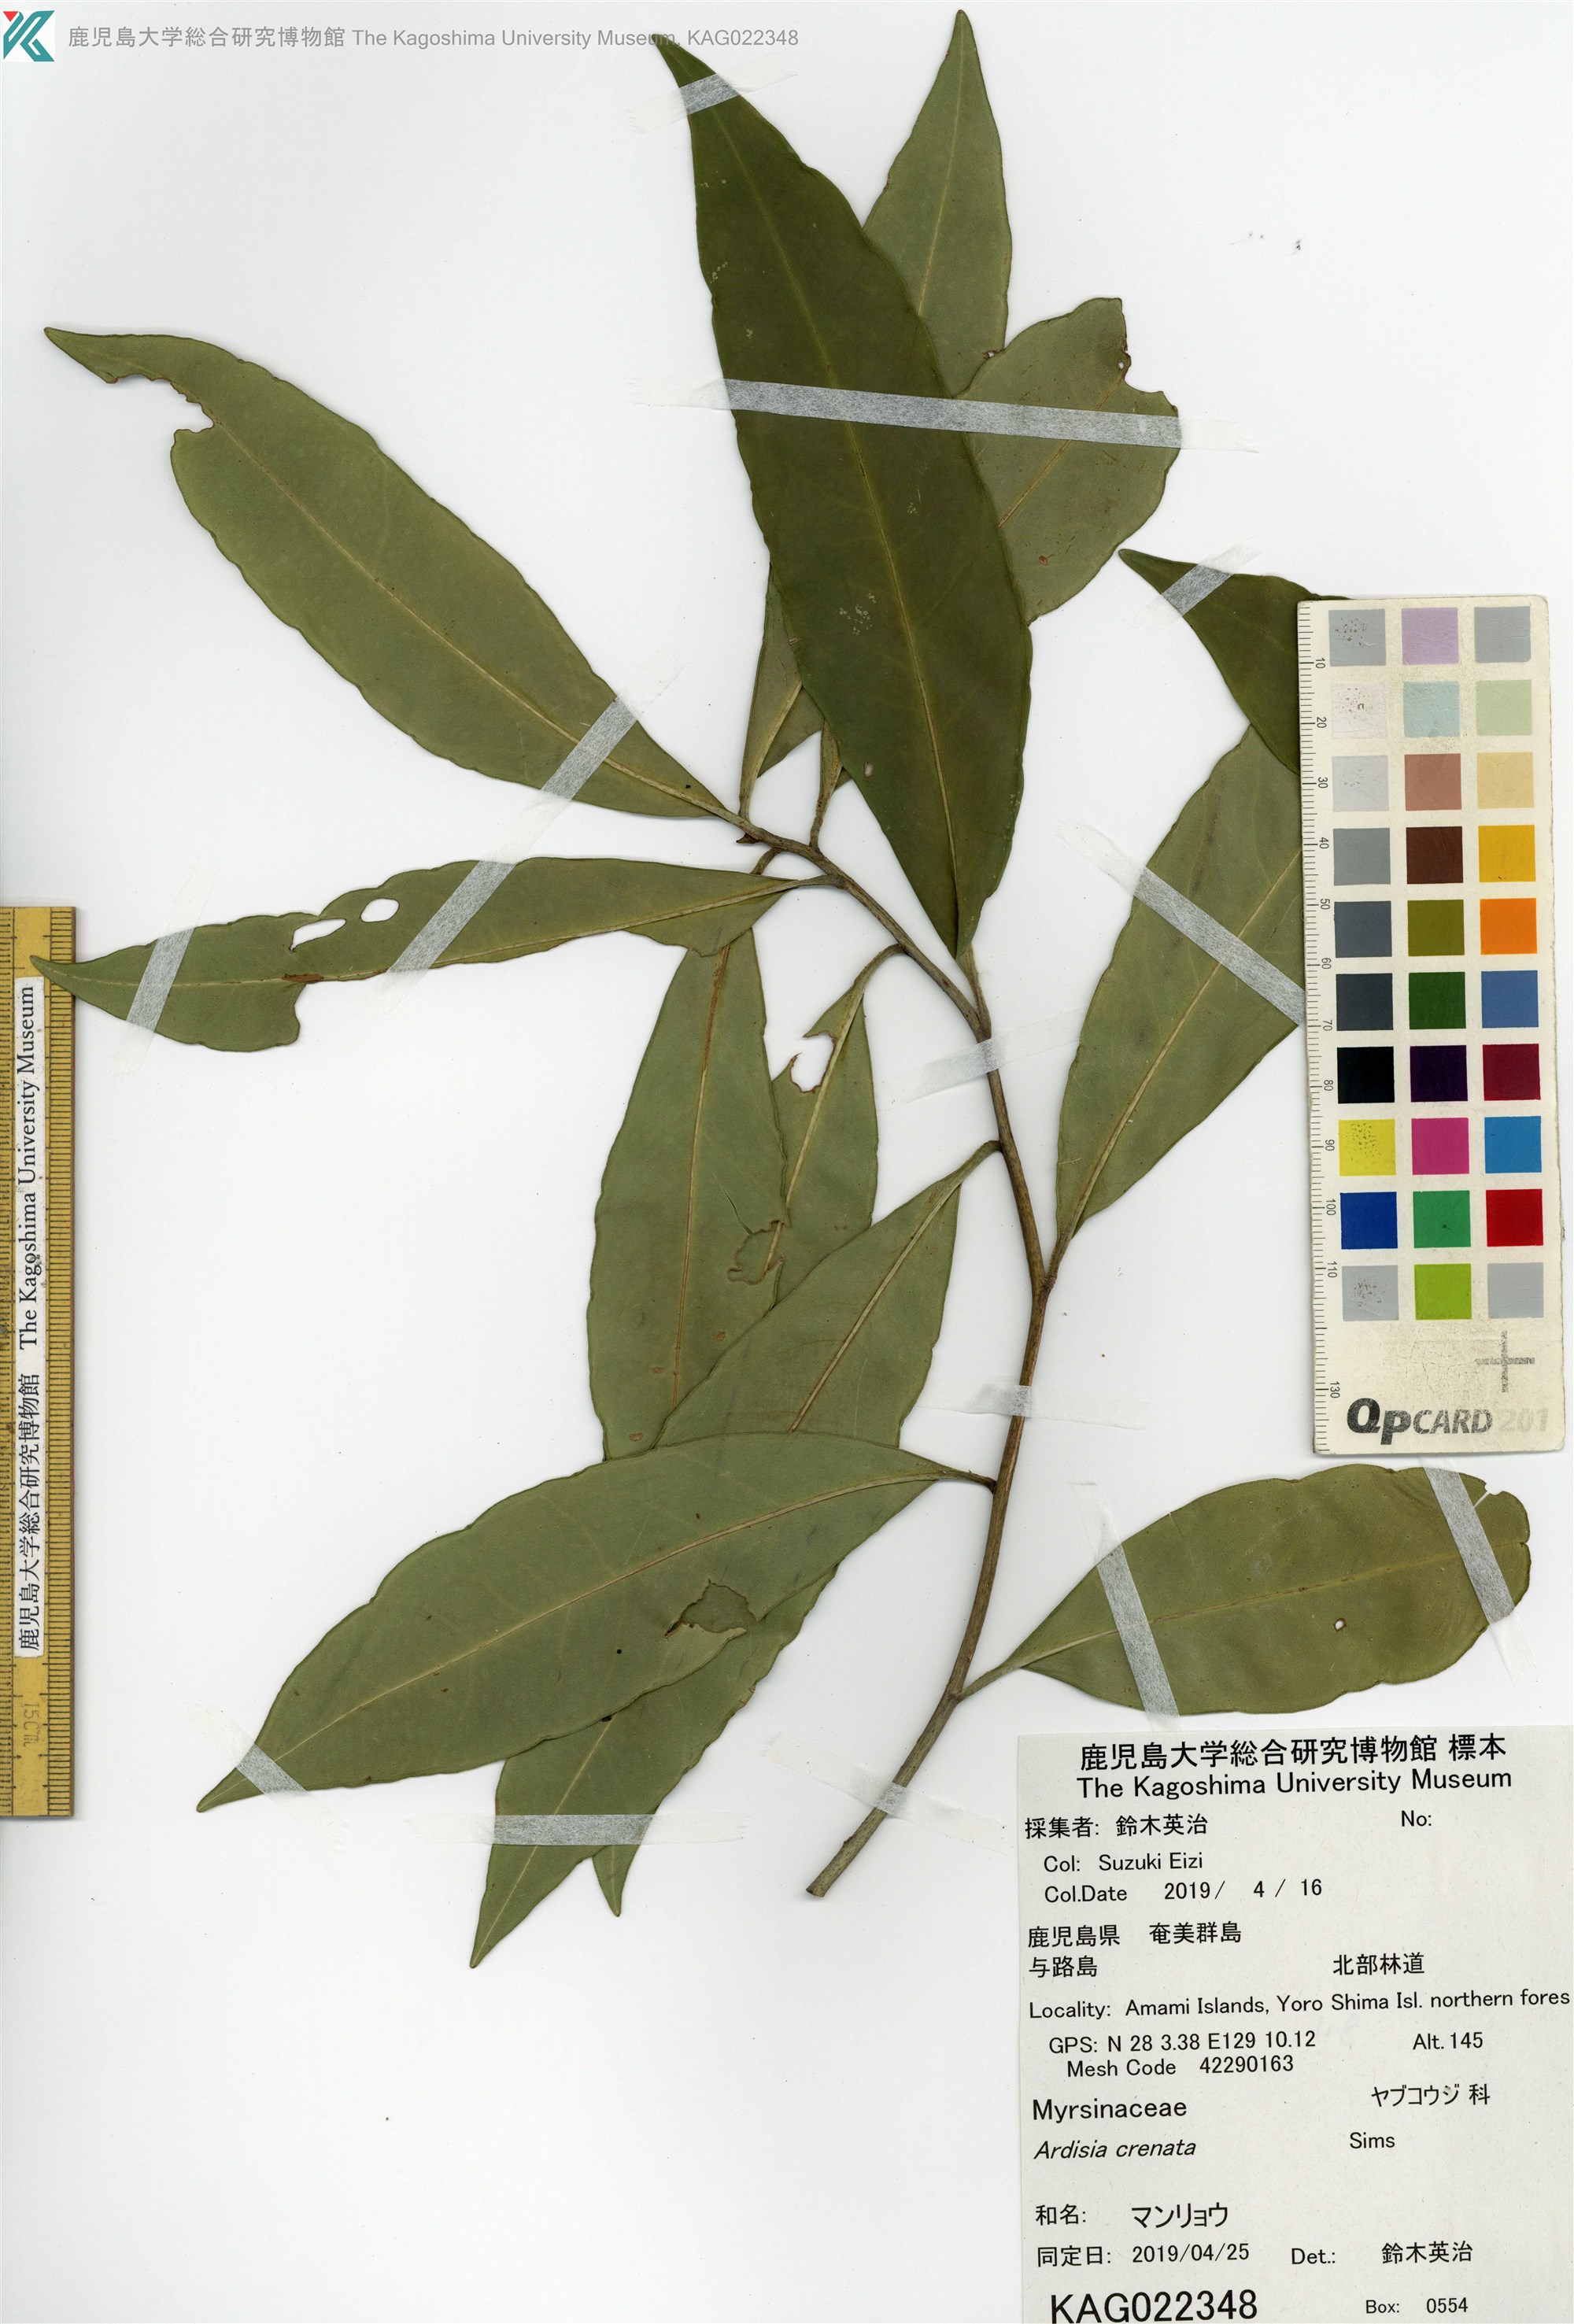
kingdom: Plantae
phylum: Tracheophyta
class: Magnoliopsida
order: Ericales
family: Primulaceae
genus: Ardisia
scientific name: Ardisia crenata
